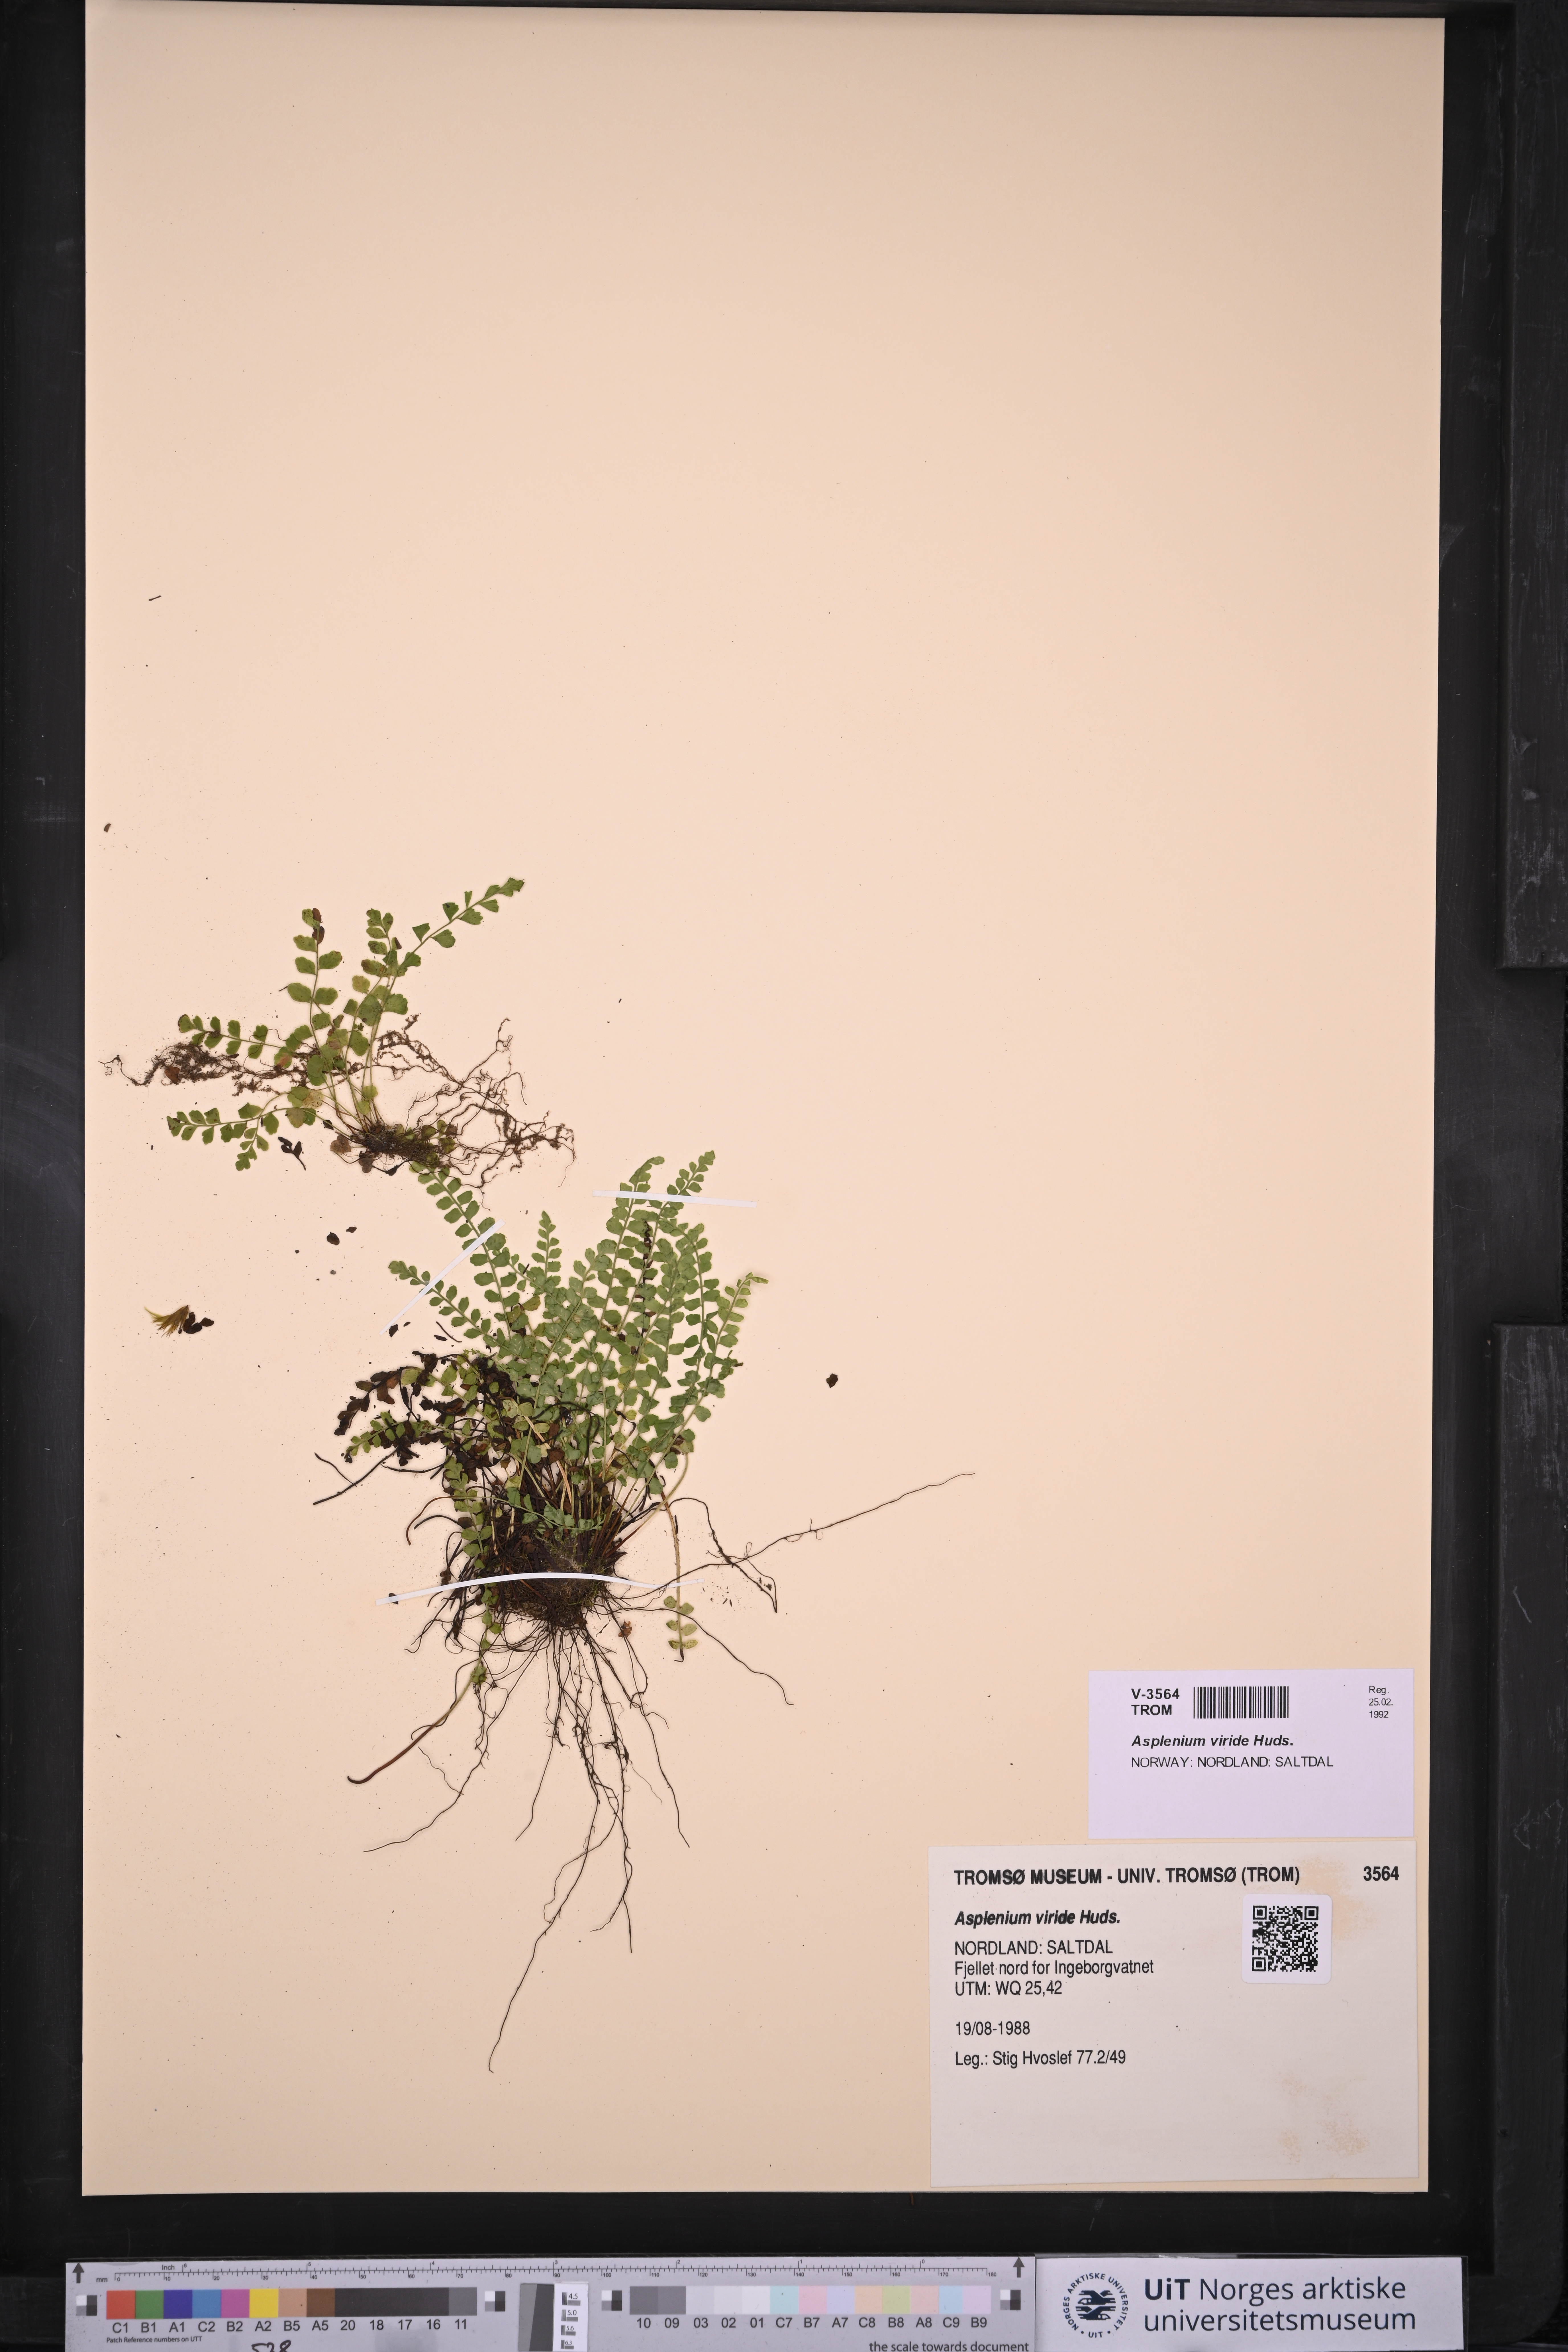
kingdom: Plantae
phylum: Tracheophyta
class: Polypodiopsida
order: Polypodiales
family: Aspleniaceae
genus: Asplenium
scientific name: Asplenium viride
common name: Green spleenwort
